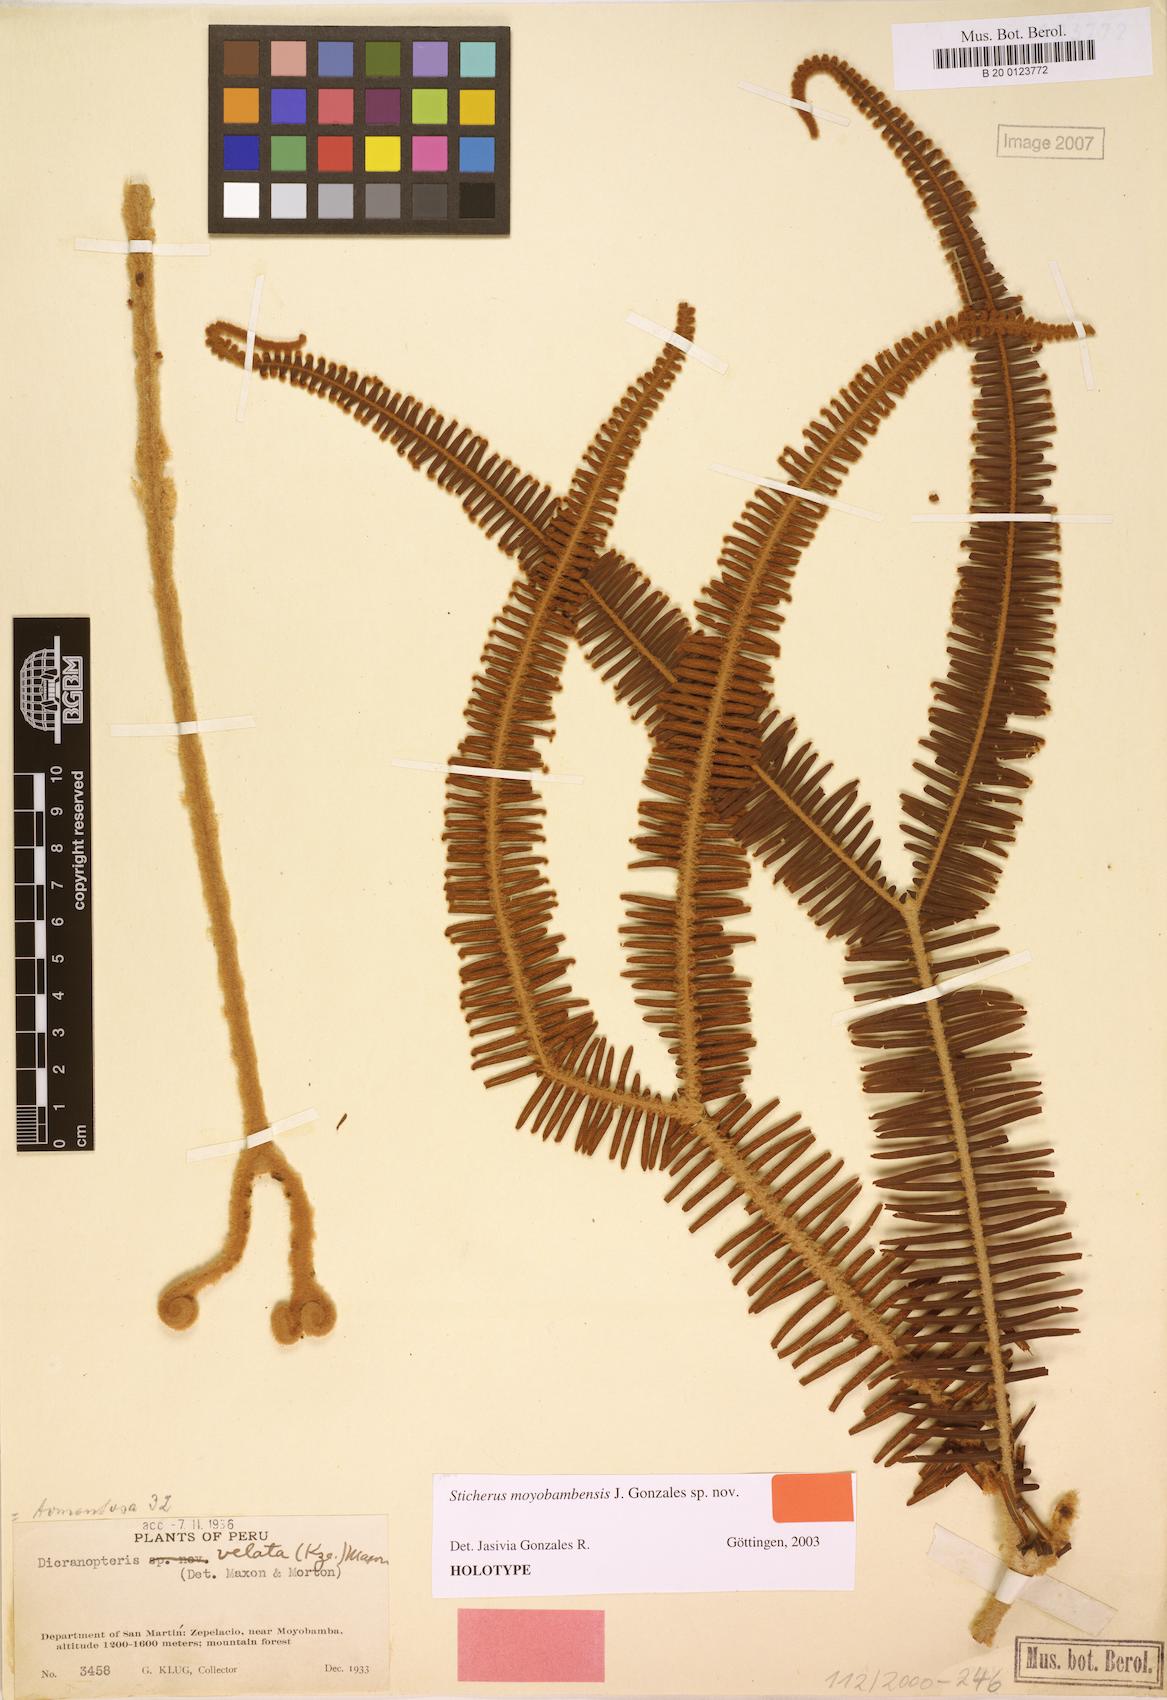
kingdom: Plantae
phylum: Tracheophyta
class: Polypodiopsida
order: Gleicheniales
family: Gleicheniaceae
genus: Sticherus
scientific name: Sticherus moyobambensis
